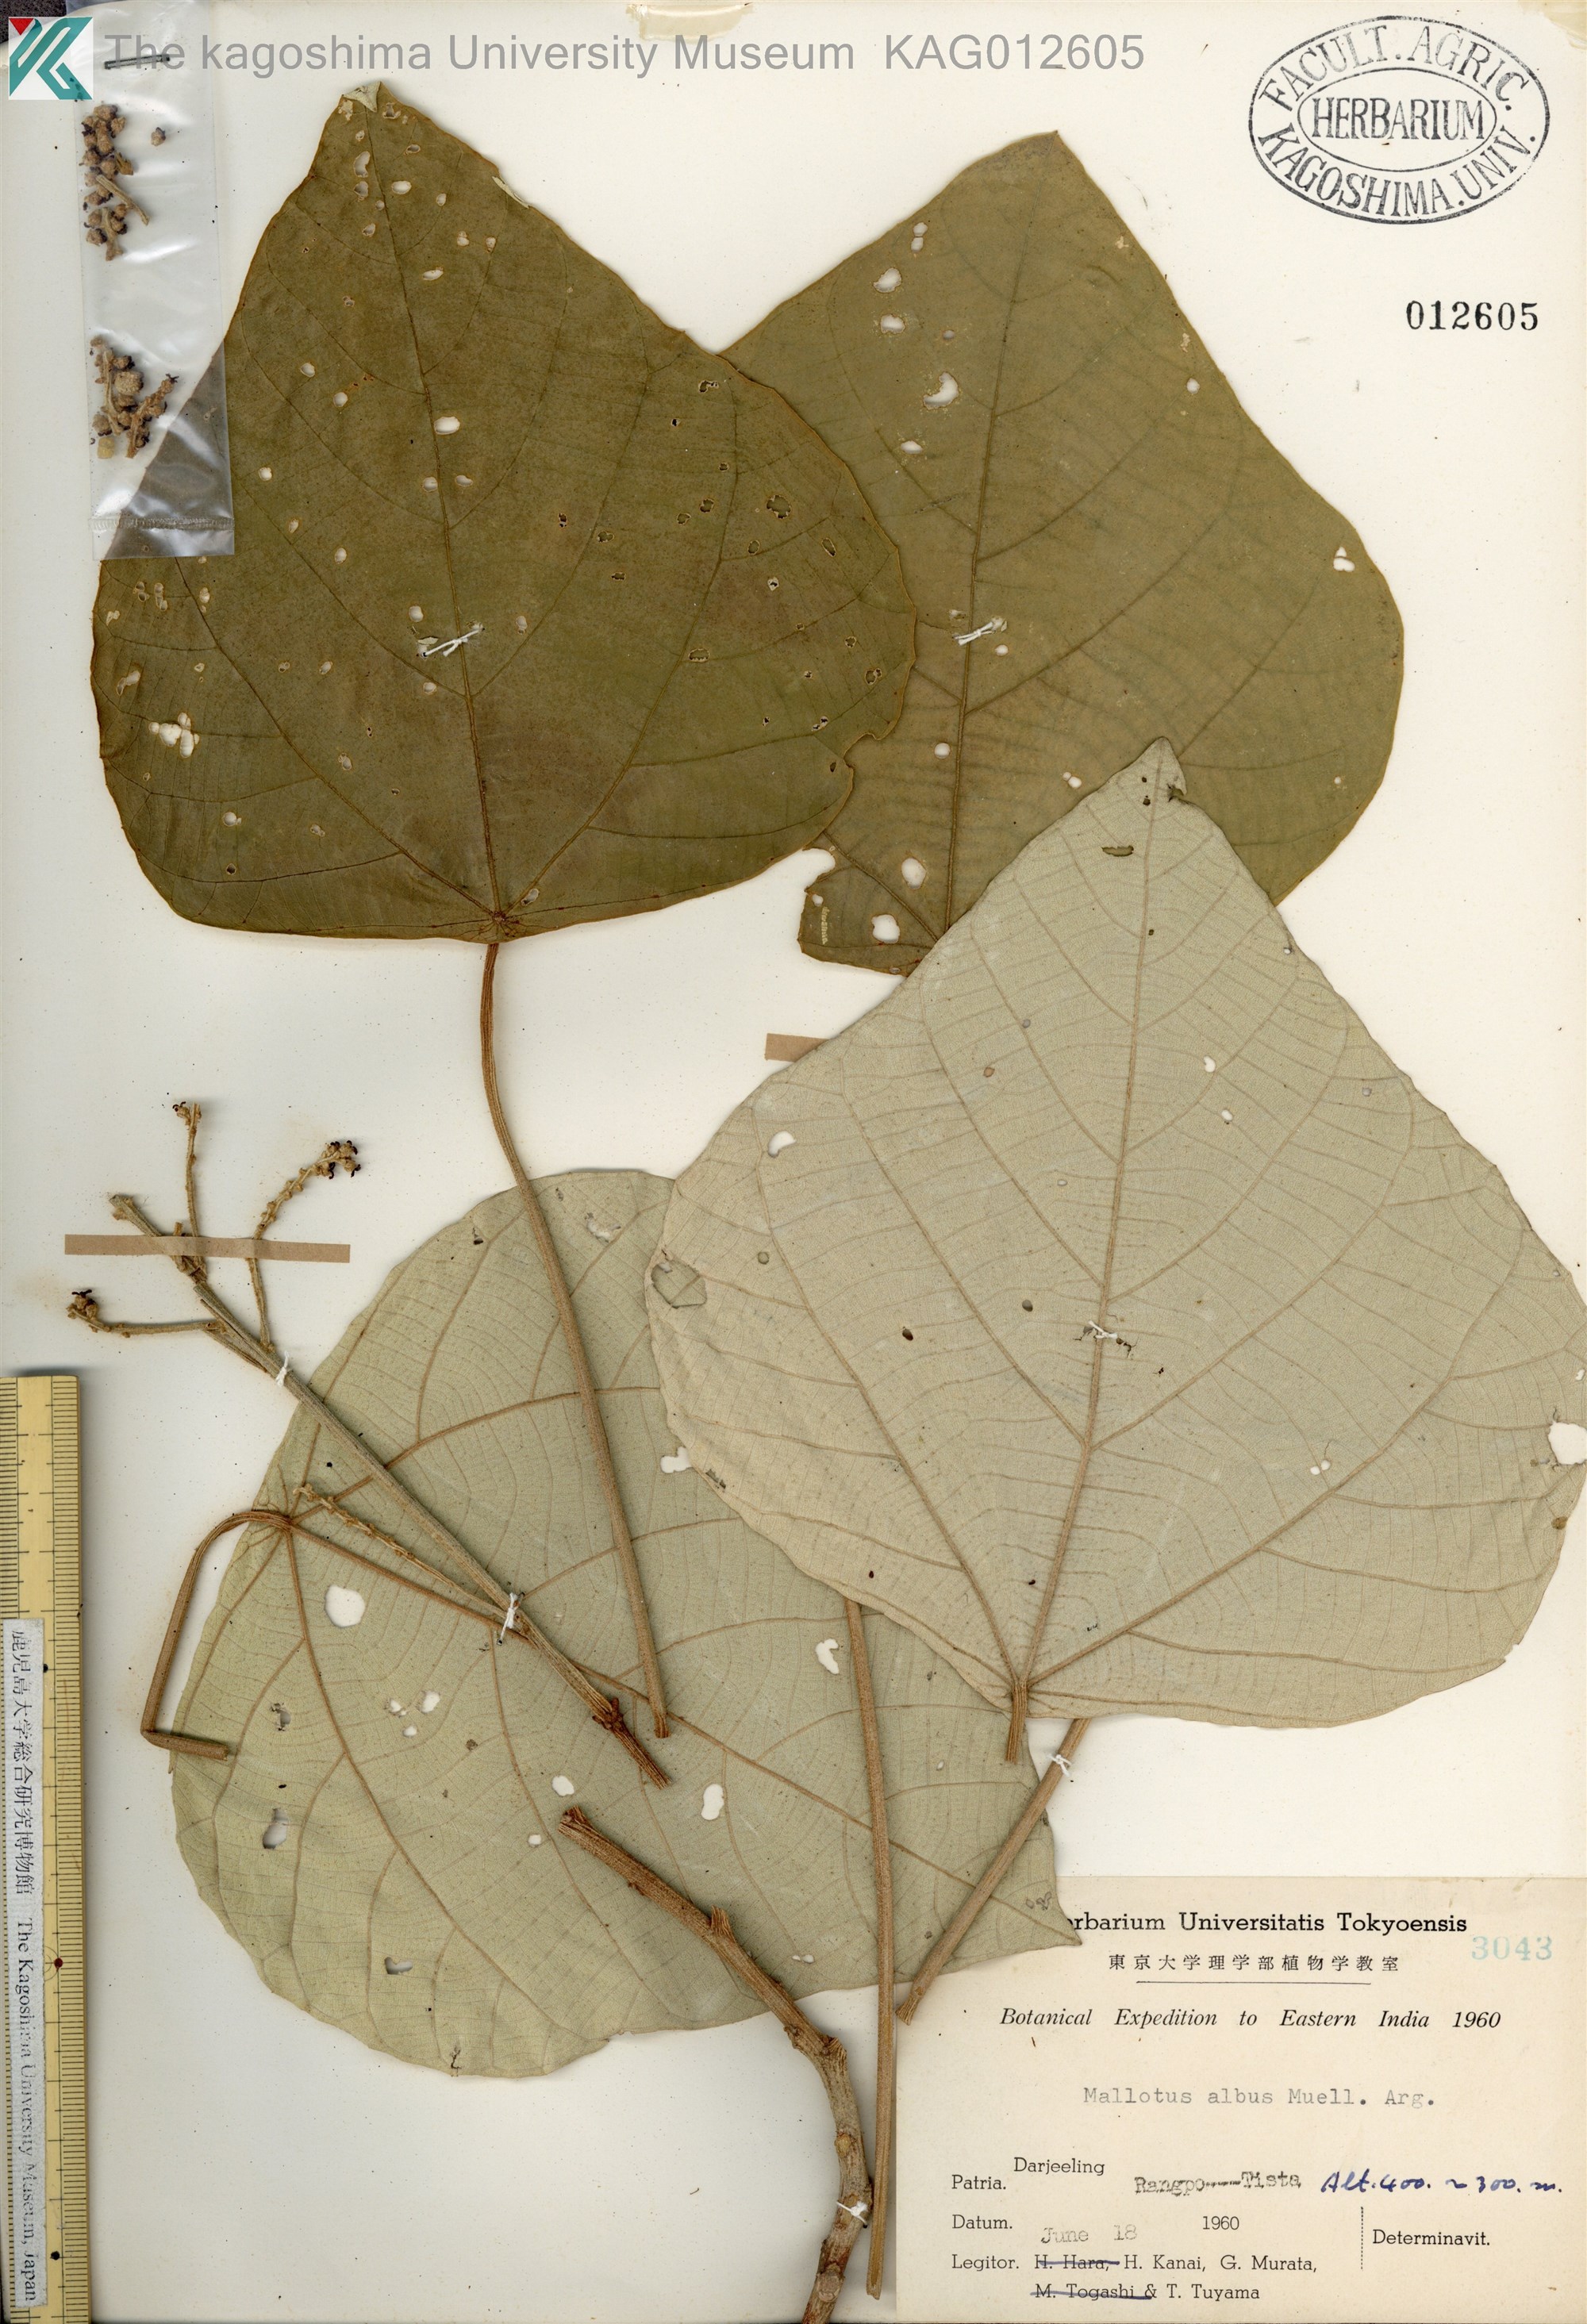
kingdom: Plantae
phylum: Tracheophyta
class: Magnoliopsida
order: Malpighiales
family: Euphorbiaceae
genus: Mallotus
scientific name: Mallotus paniculatus
